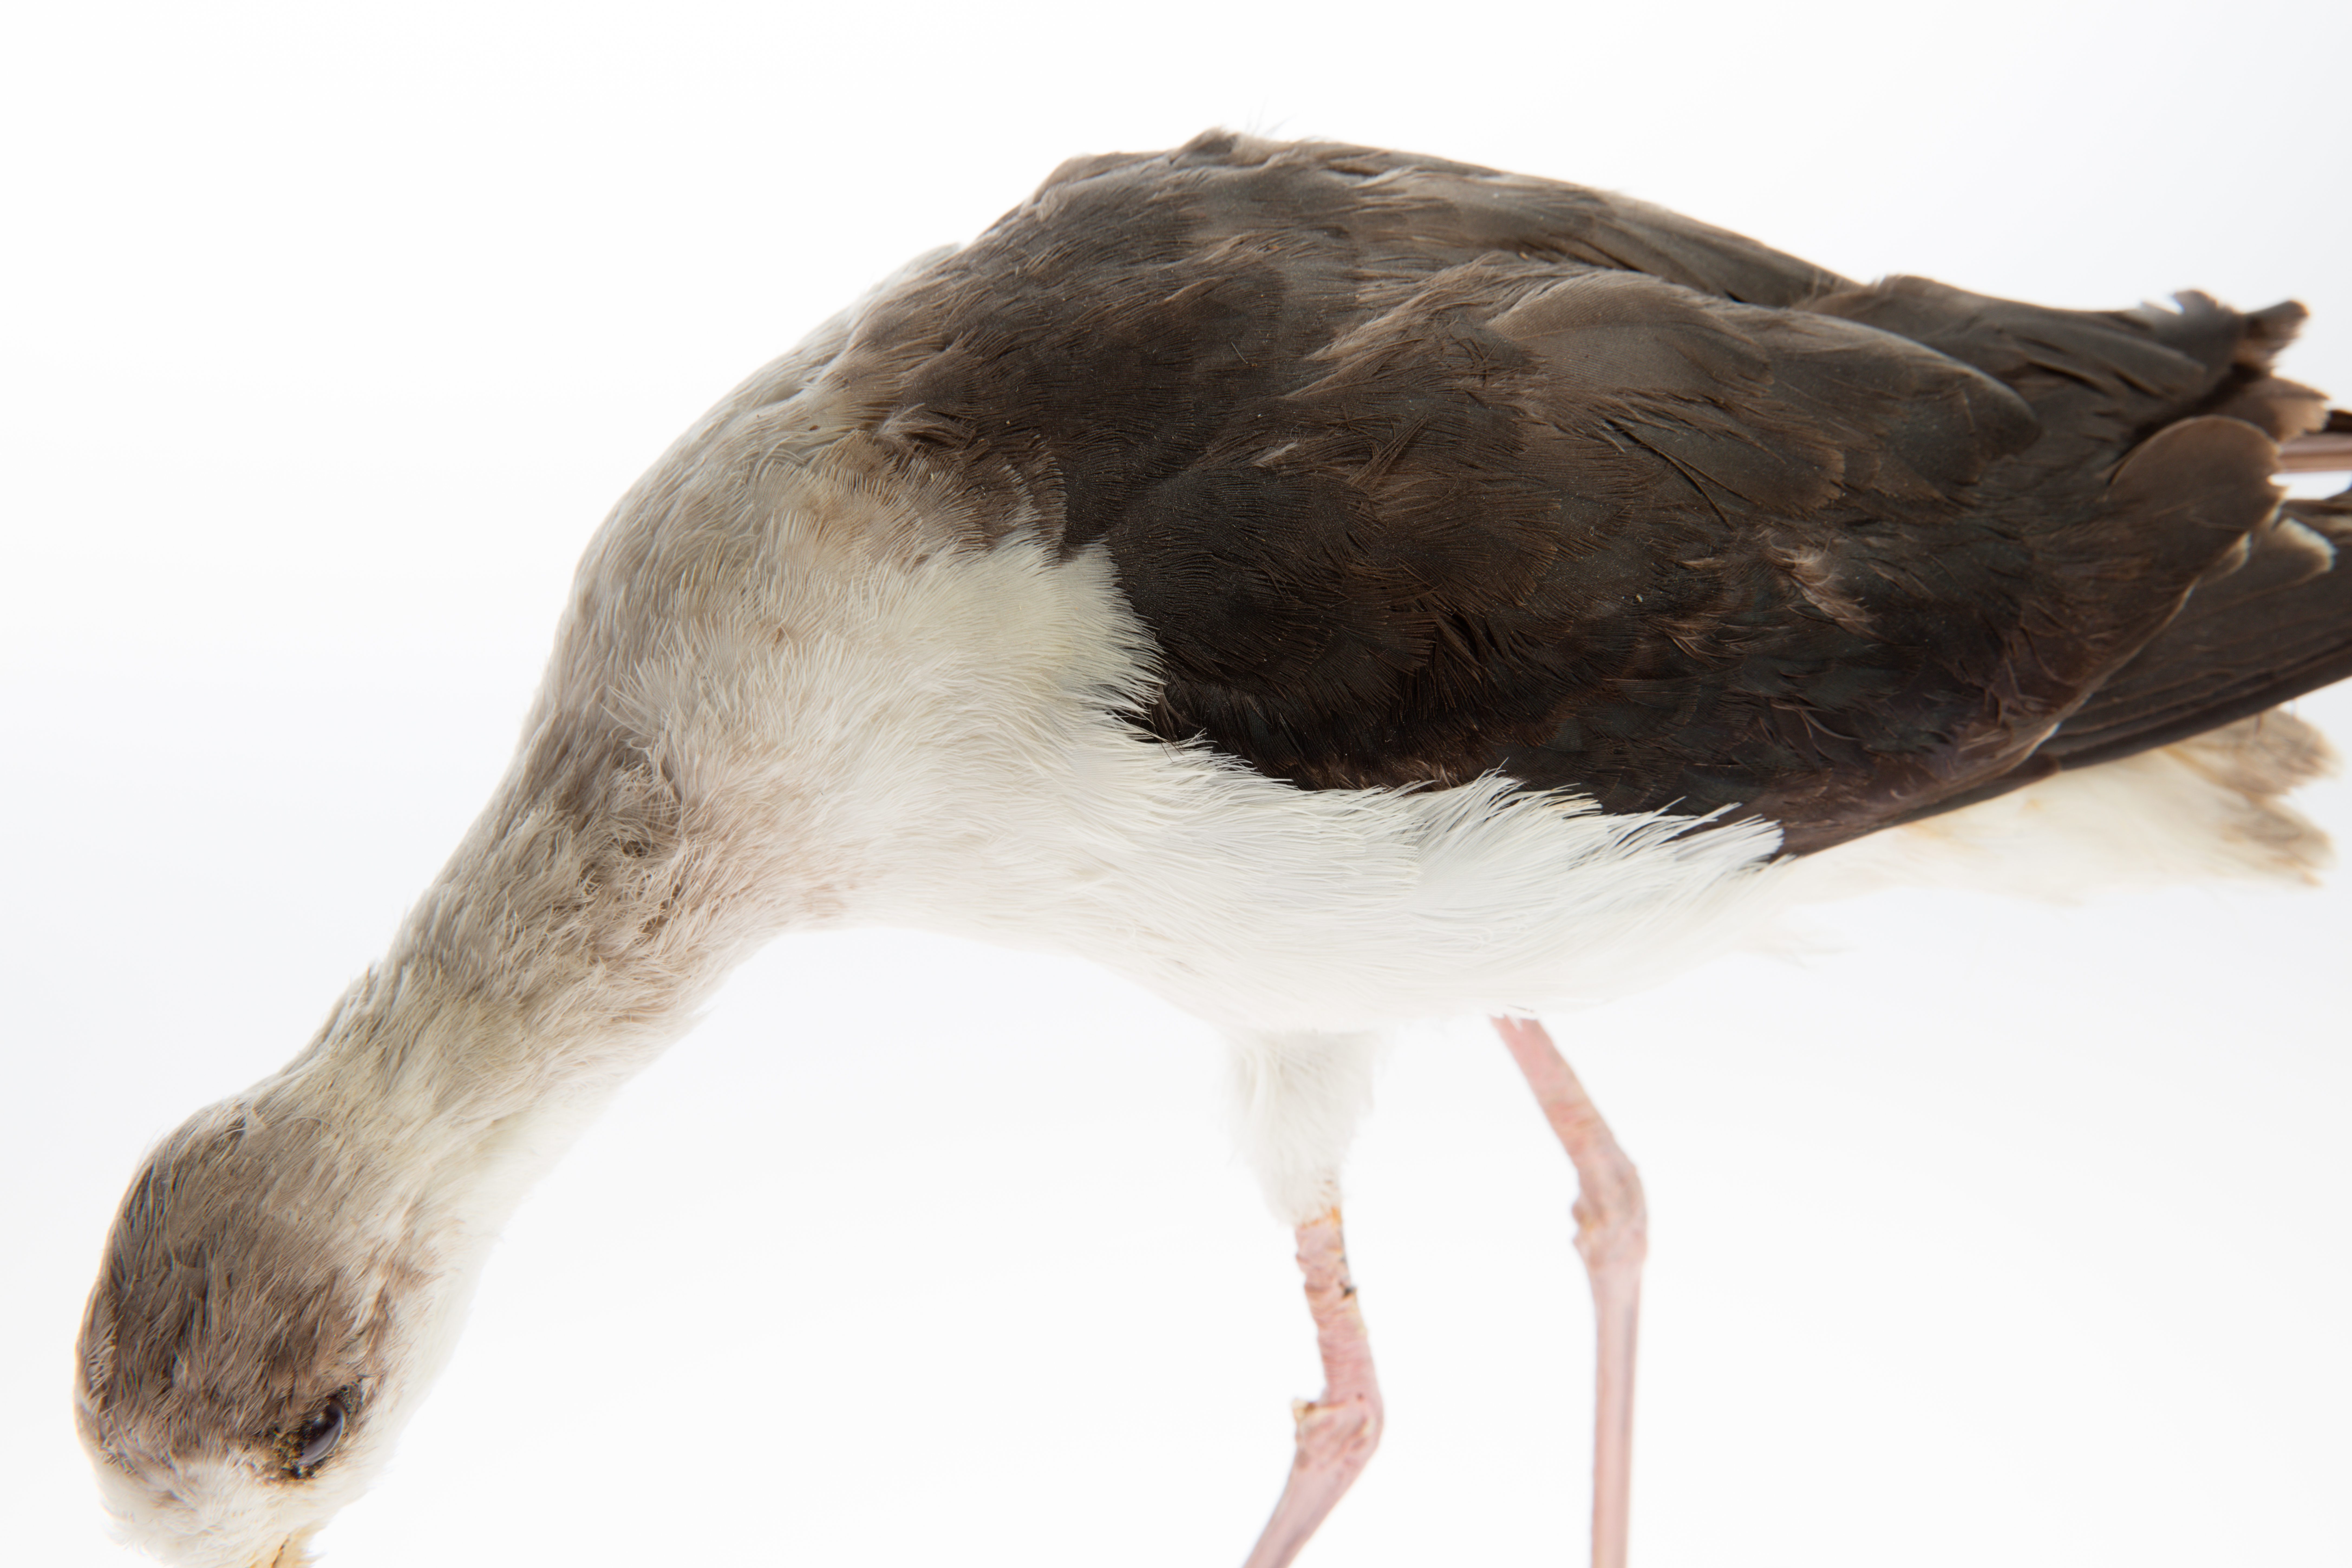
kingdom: Animalia
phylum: Chordata
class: Aves
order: Charadriiformes
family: Recurvirostridae
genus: Himantopus
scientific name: Himantopus himantopus
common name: Black-winged stilt
